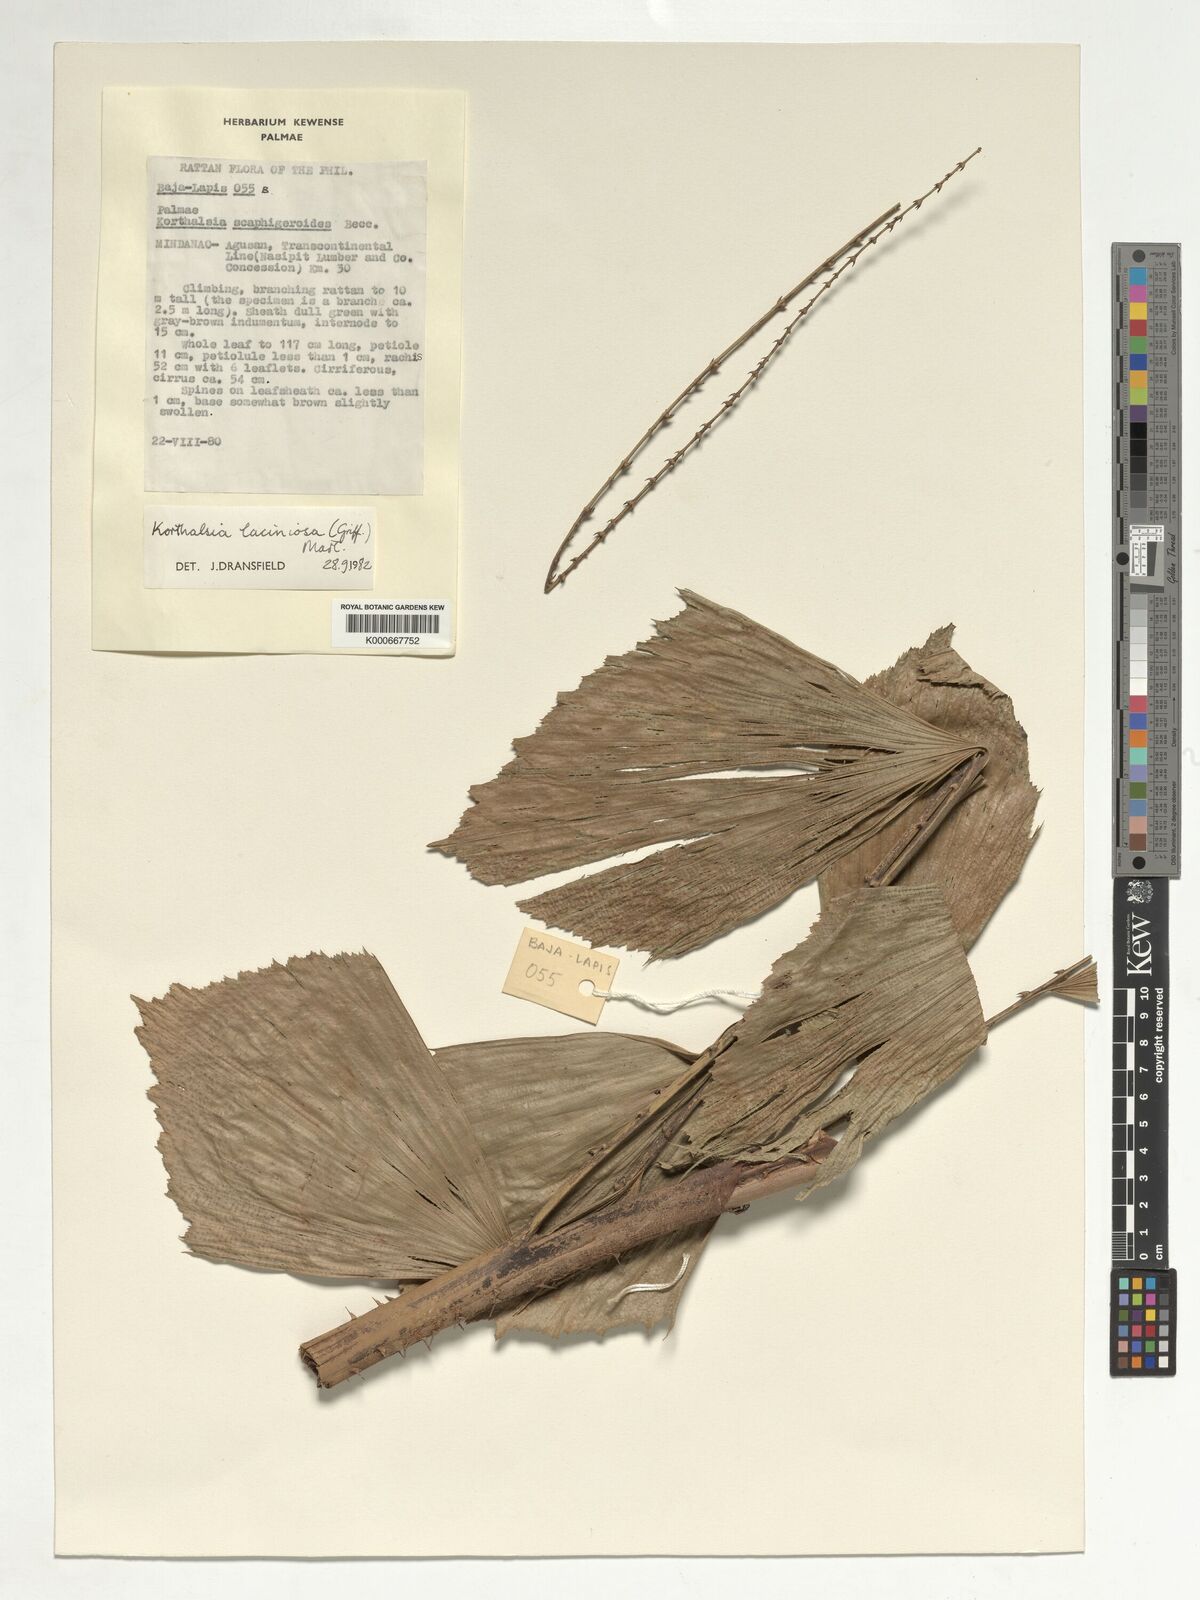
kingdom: Plantae
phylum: Tracheophyta
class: Liliopsida
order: Arecales
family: Arecaceae
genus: Korthalsia
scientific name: Korthalsia laciniosa
